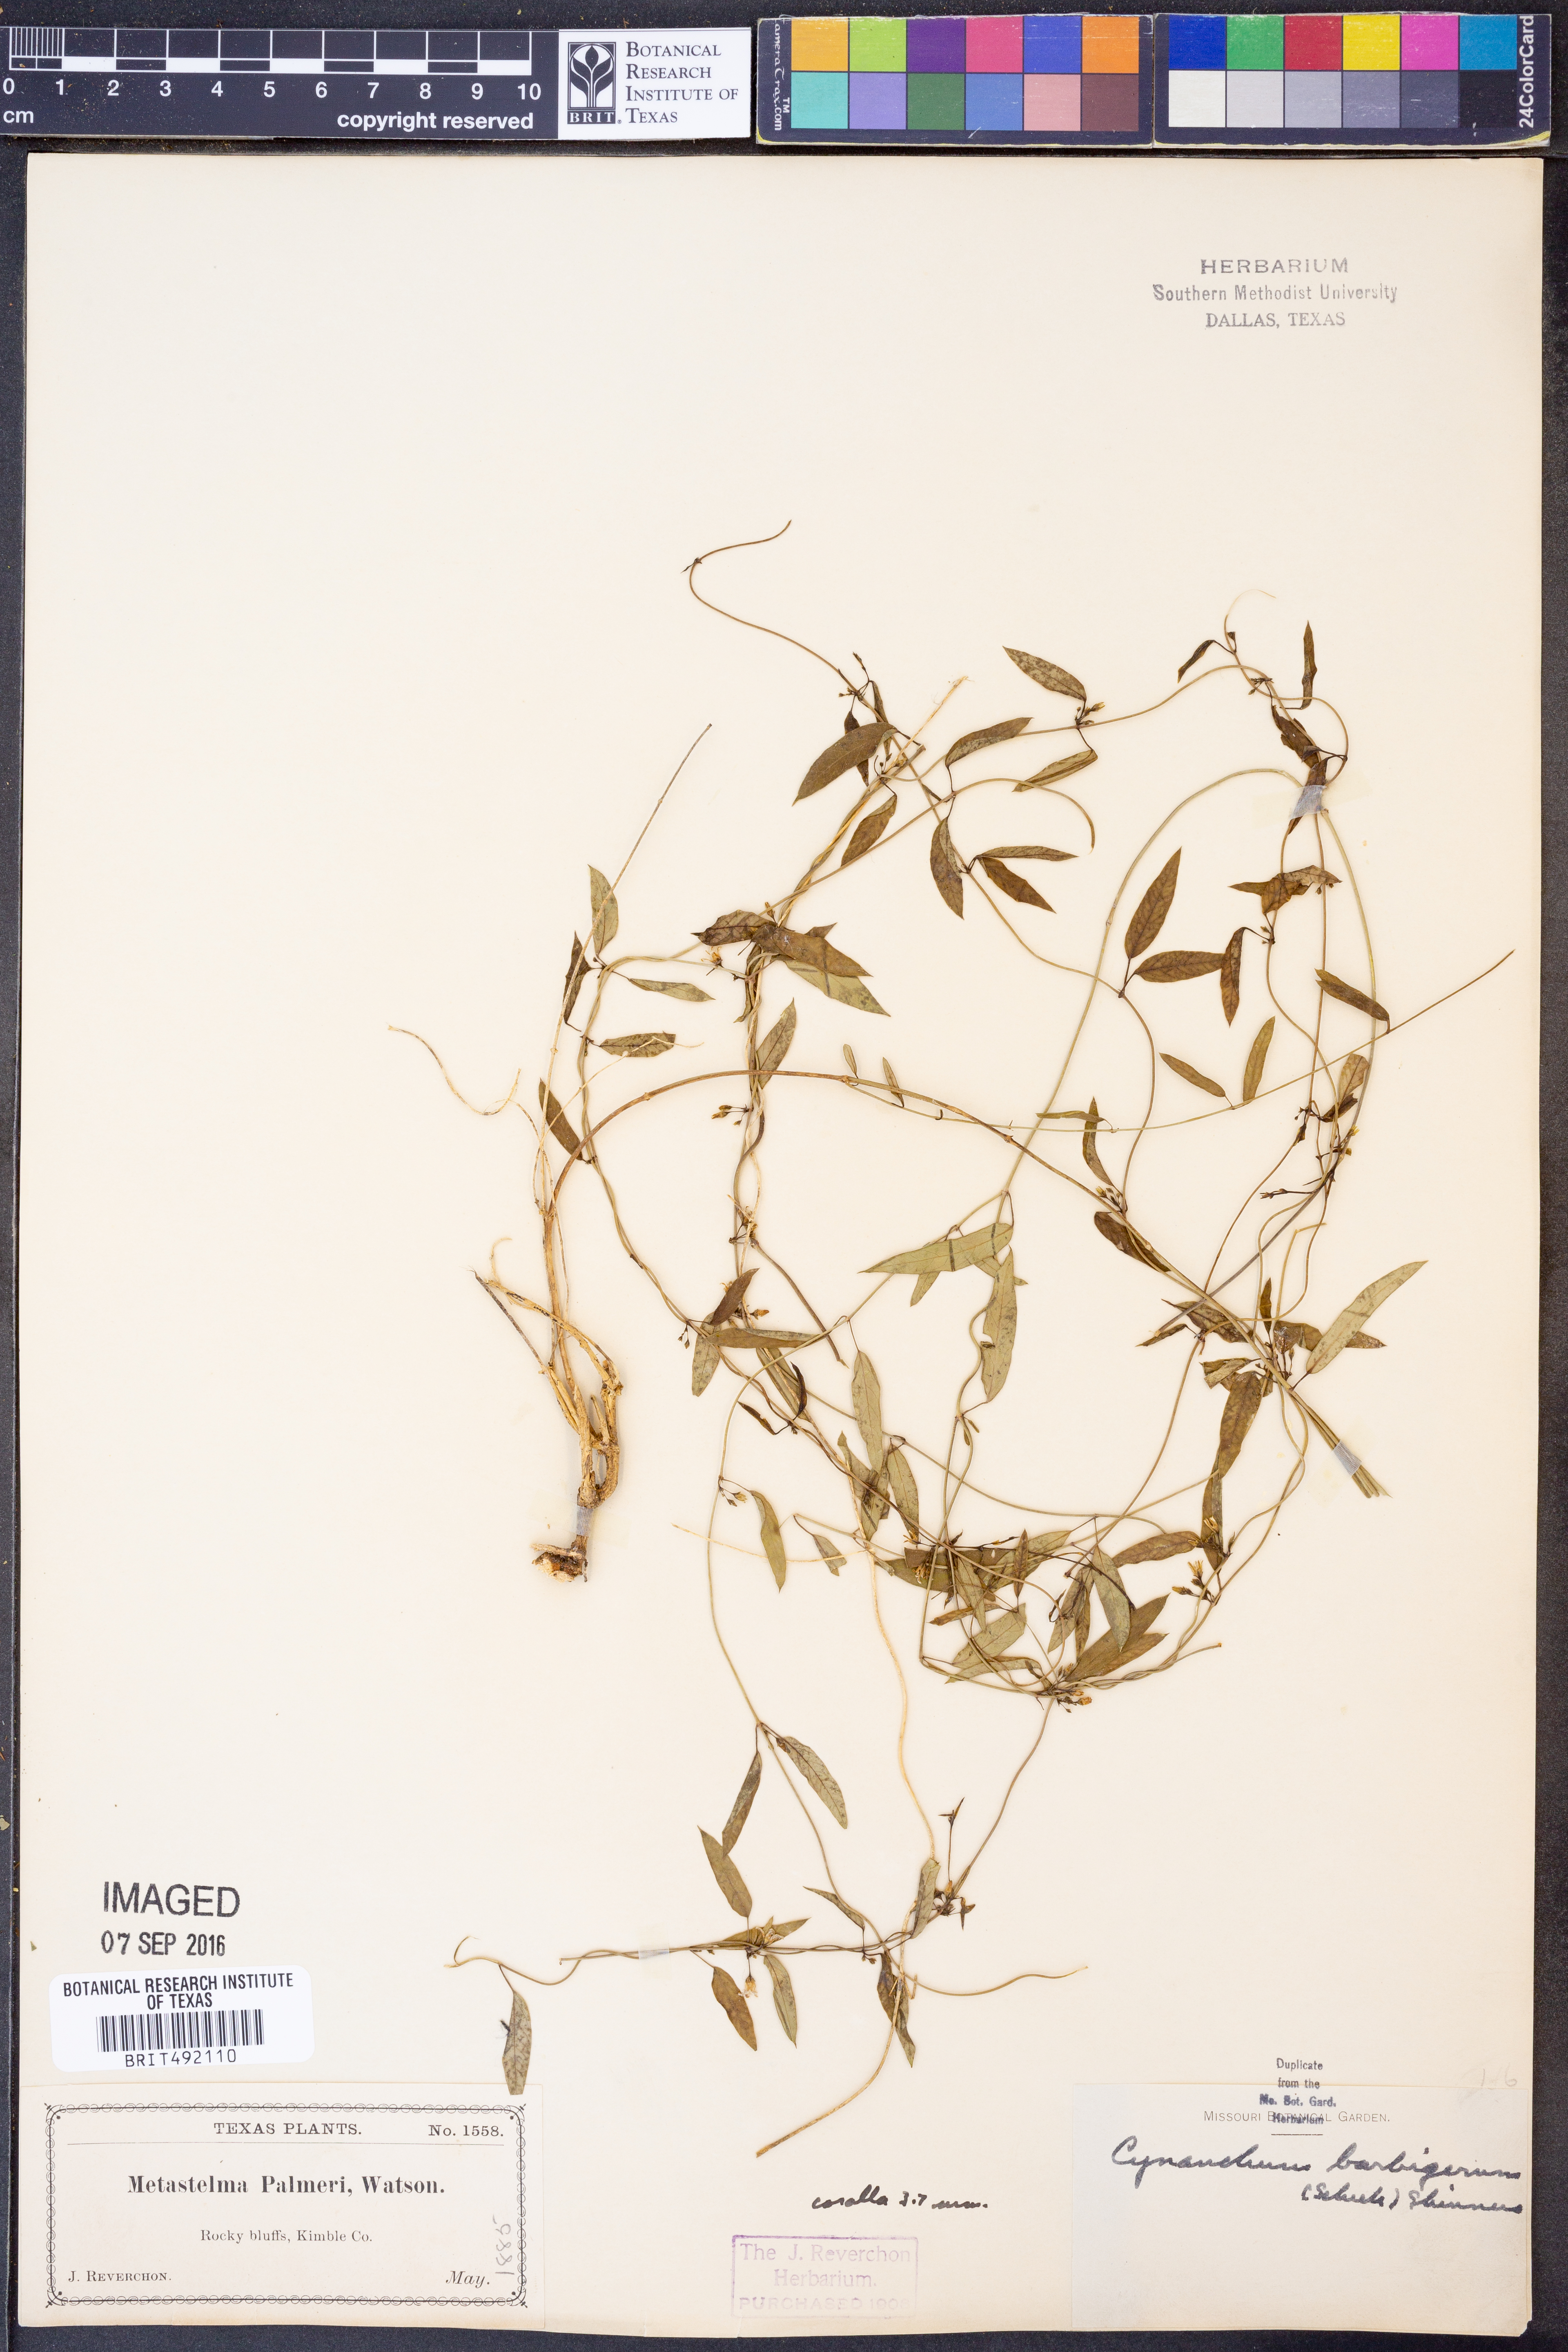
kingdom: Plantae
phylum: Tracheophyta
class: Magnoliopsida
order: Gentianales
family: Apocynaceae
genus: Metastelma
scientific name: Metastelma barbigerum
